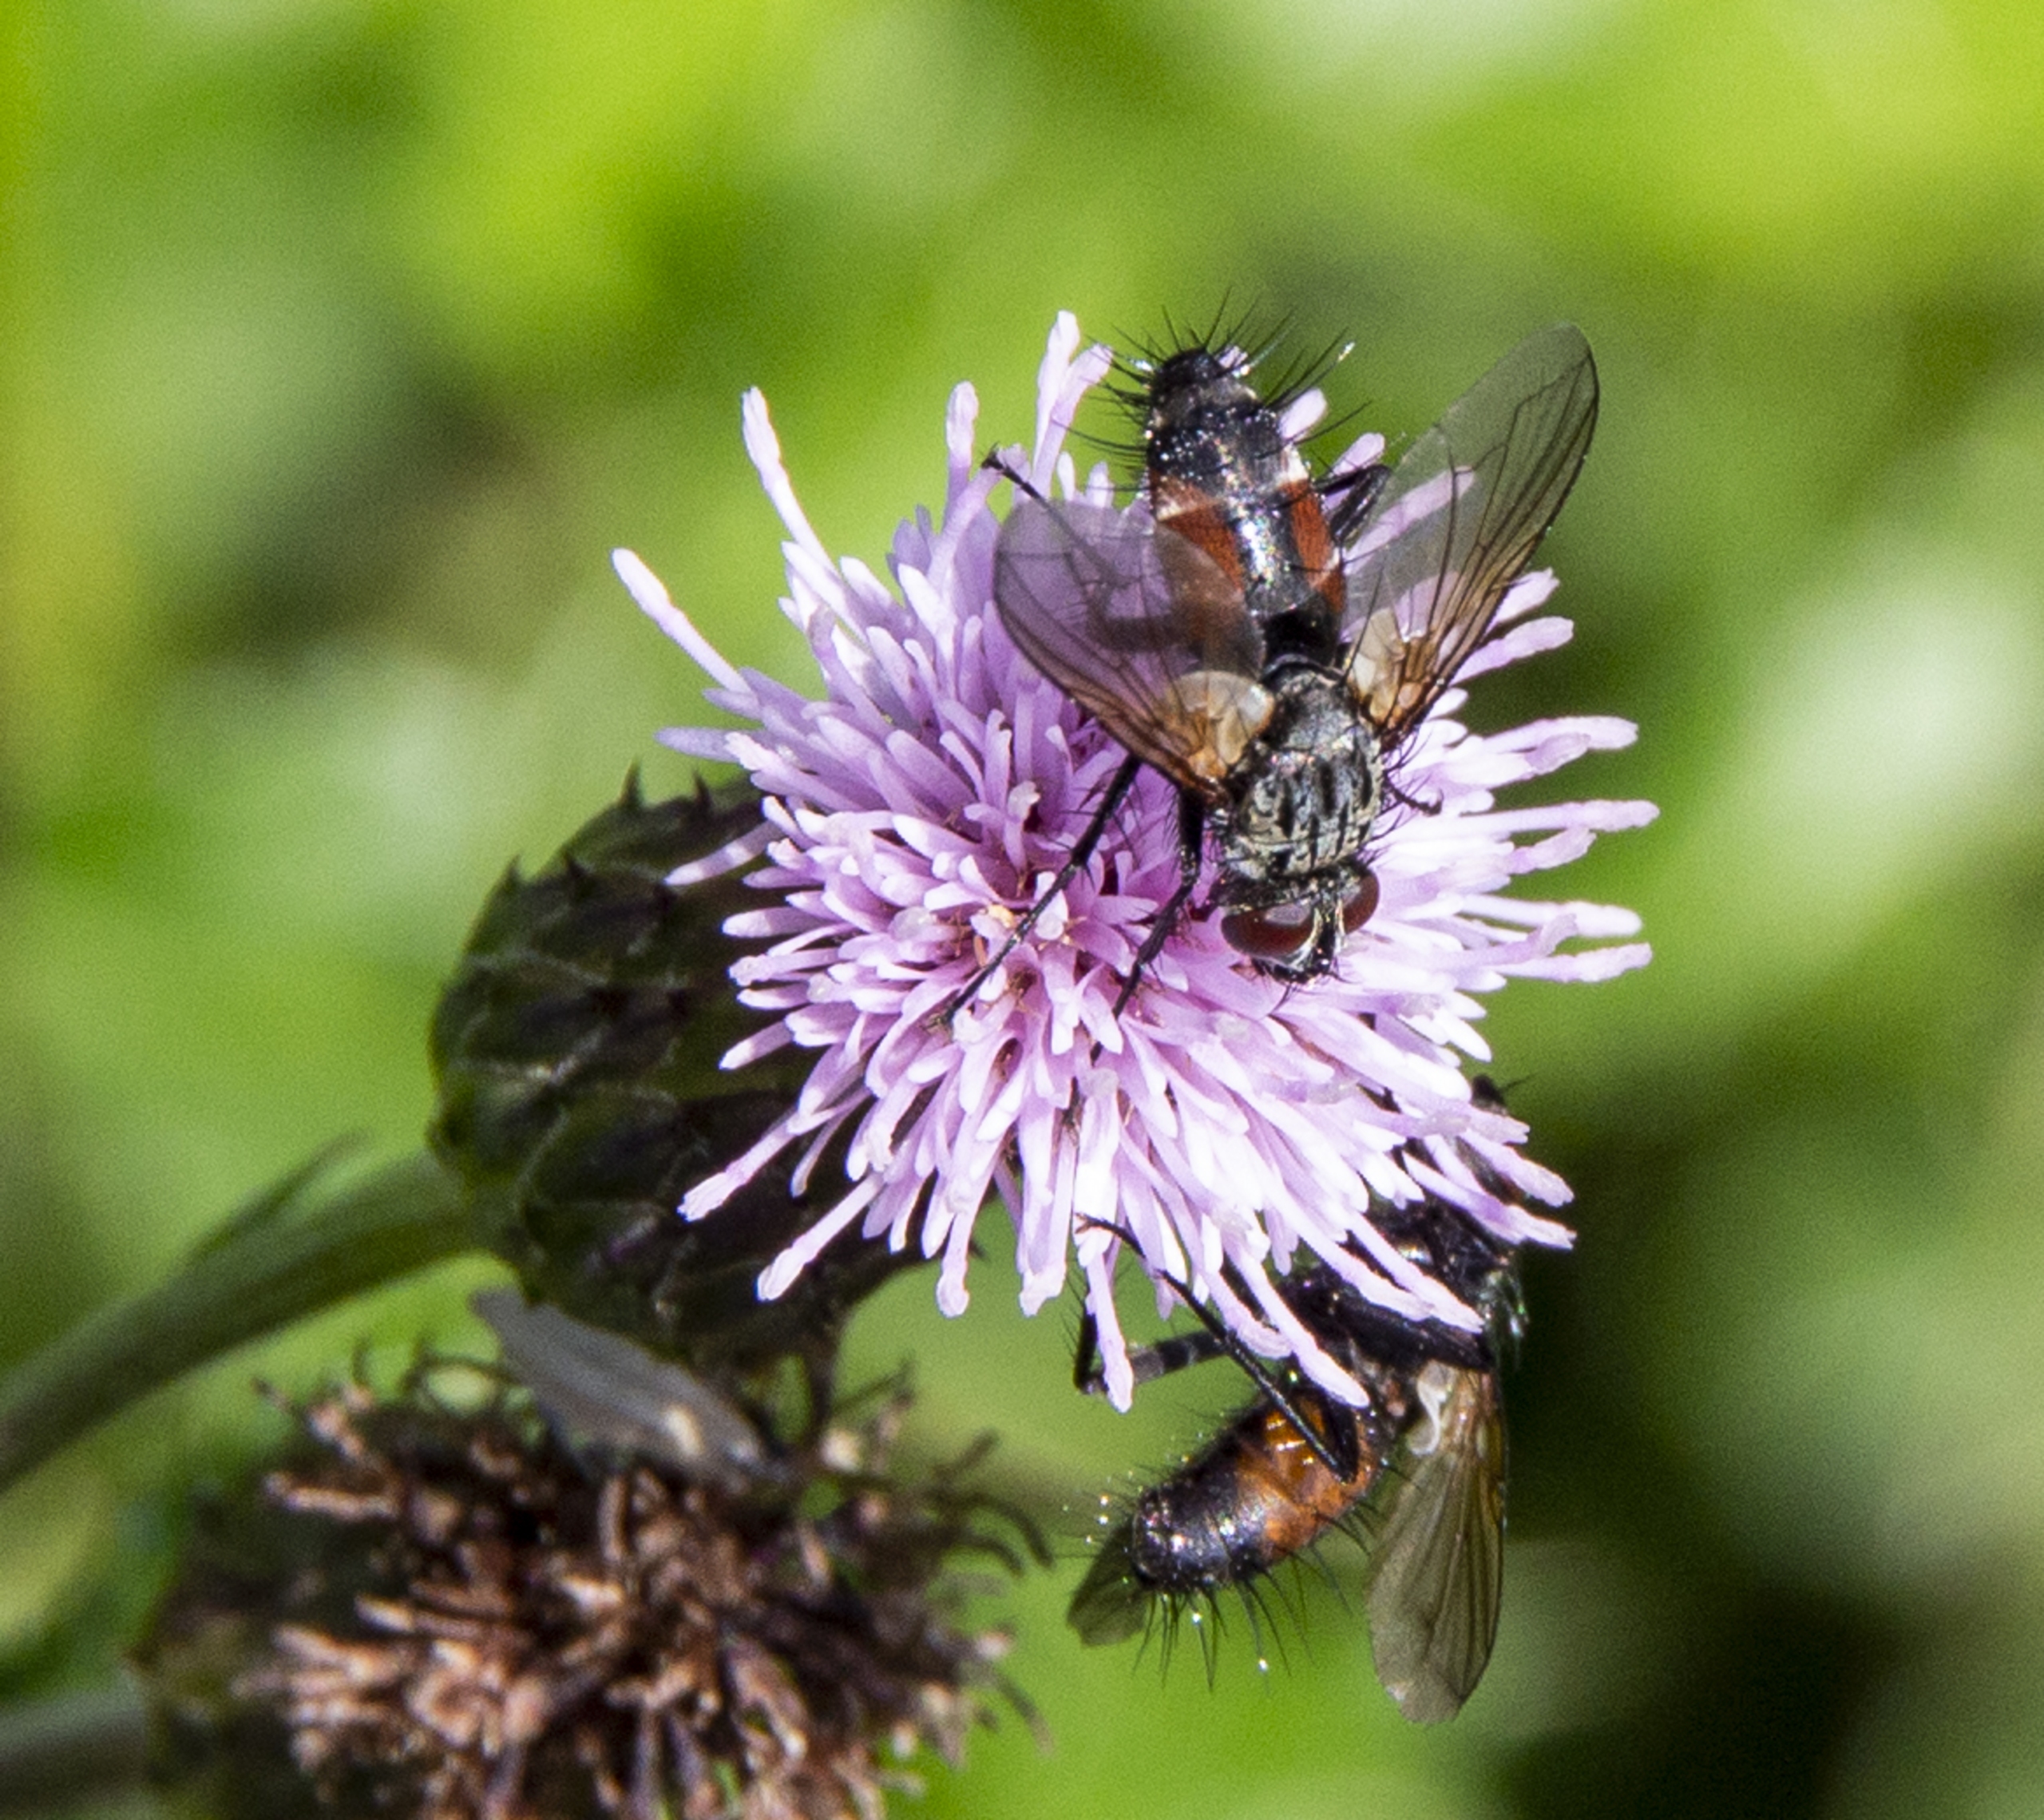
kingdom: Animalia
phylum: Arthropoda
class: Insecta
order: Diptera
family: Tachinidae
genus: Eriothrix
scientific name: Eriothrix rufomaculatus
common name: Rød snylteflue
